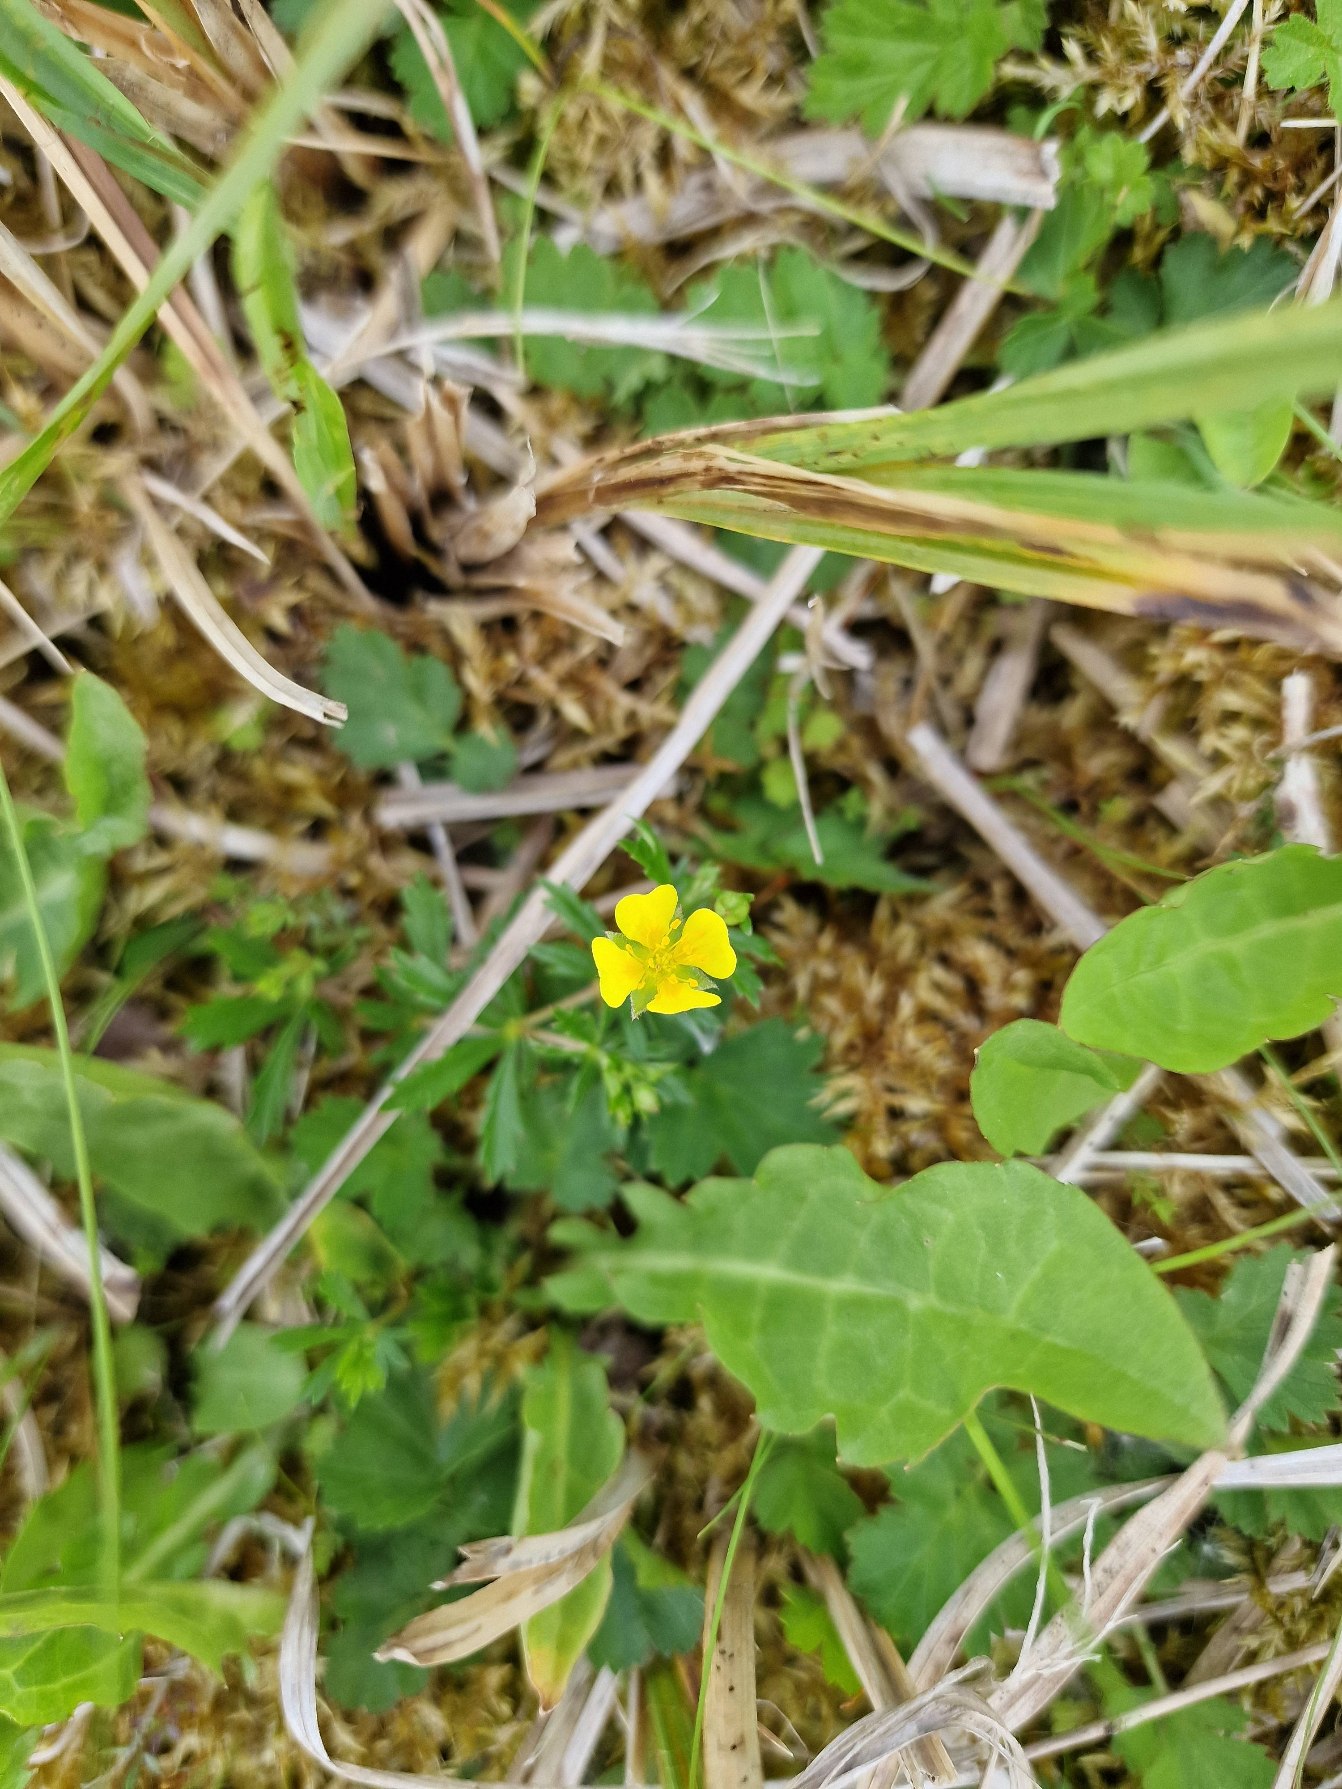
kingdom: Plantae
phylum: Tracheophyta
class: Magnoliopsida
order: Rosales
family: Rosaceae
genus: Potentilla
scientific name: Potentilla erecta
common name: Tormentil
